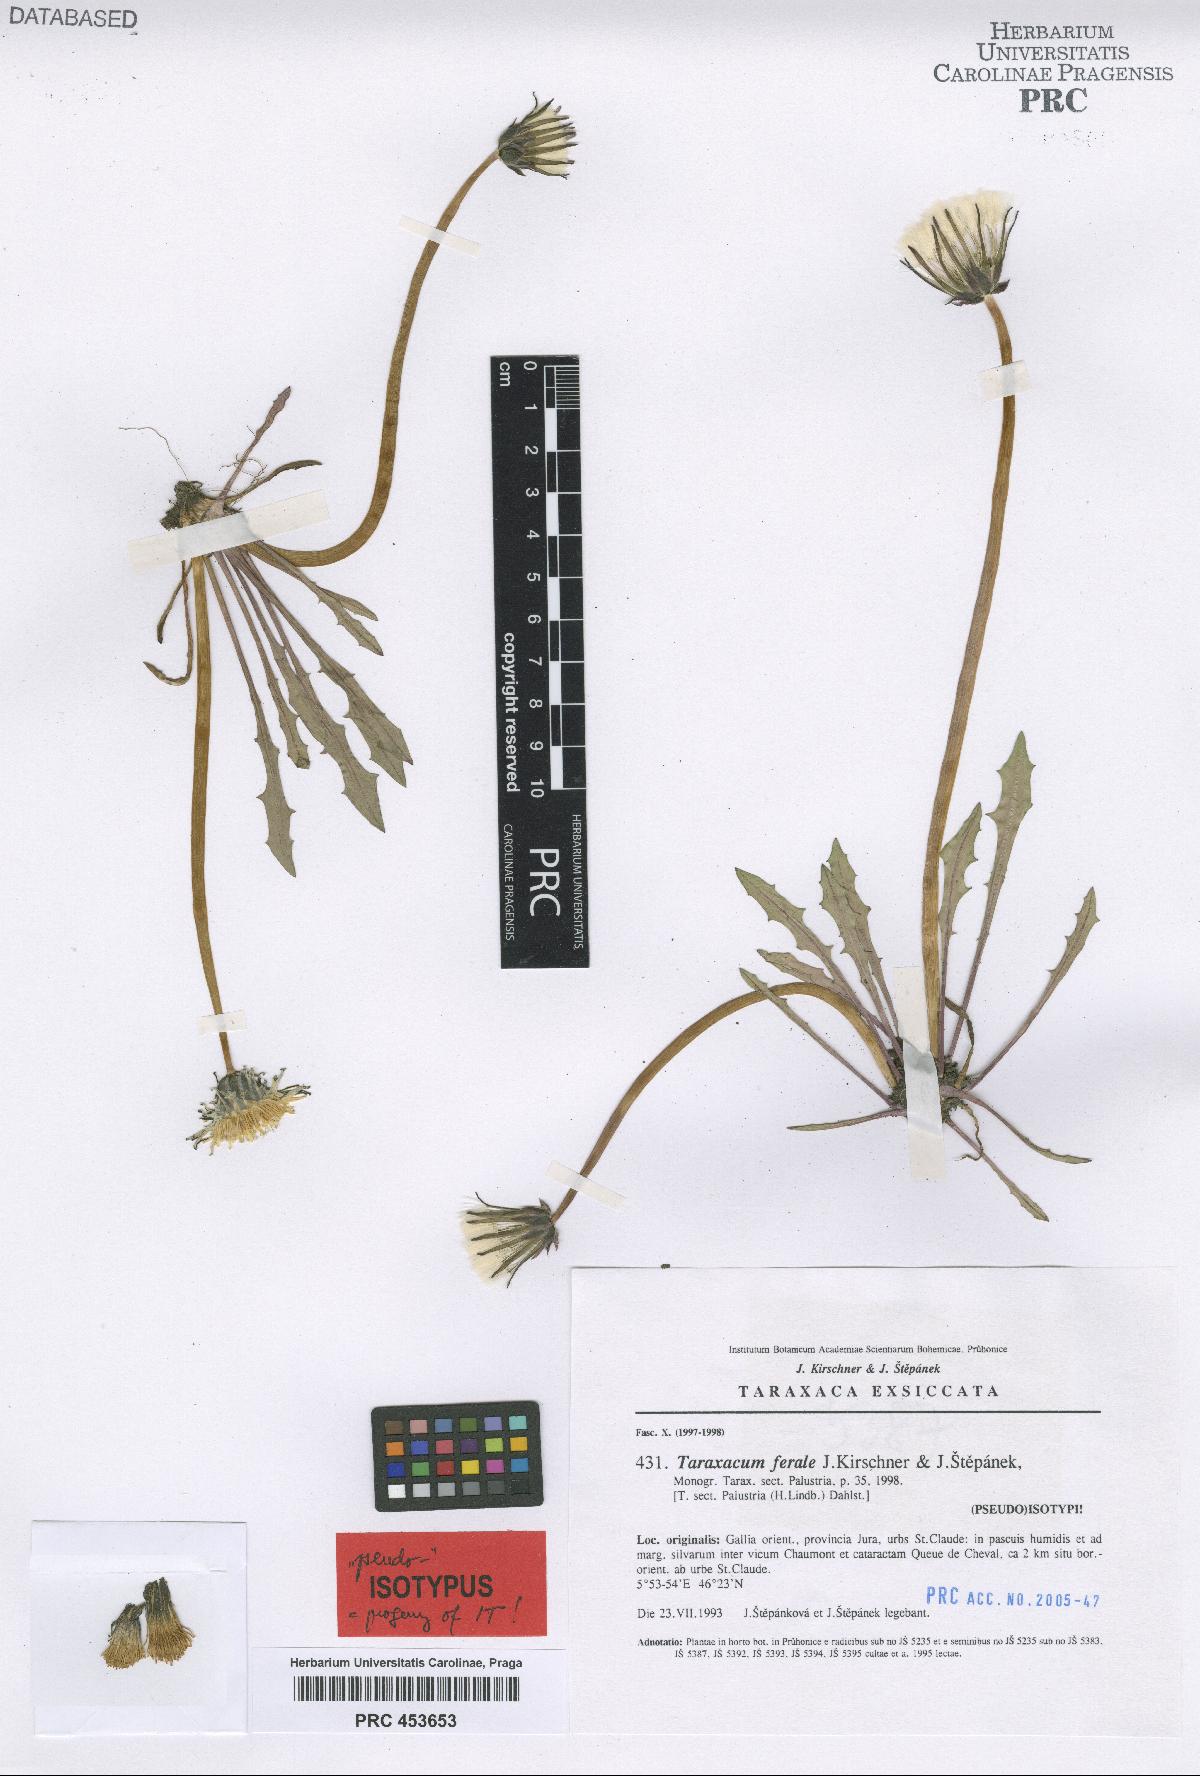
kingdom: Plantae
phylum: Tracheophyta
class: Magnoliopsida
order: Asterales
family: Asteraceae
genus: Taraxacum
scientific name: Taraxacum ferale
